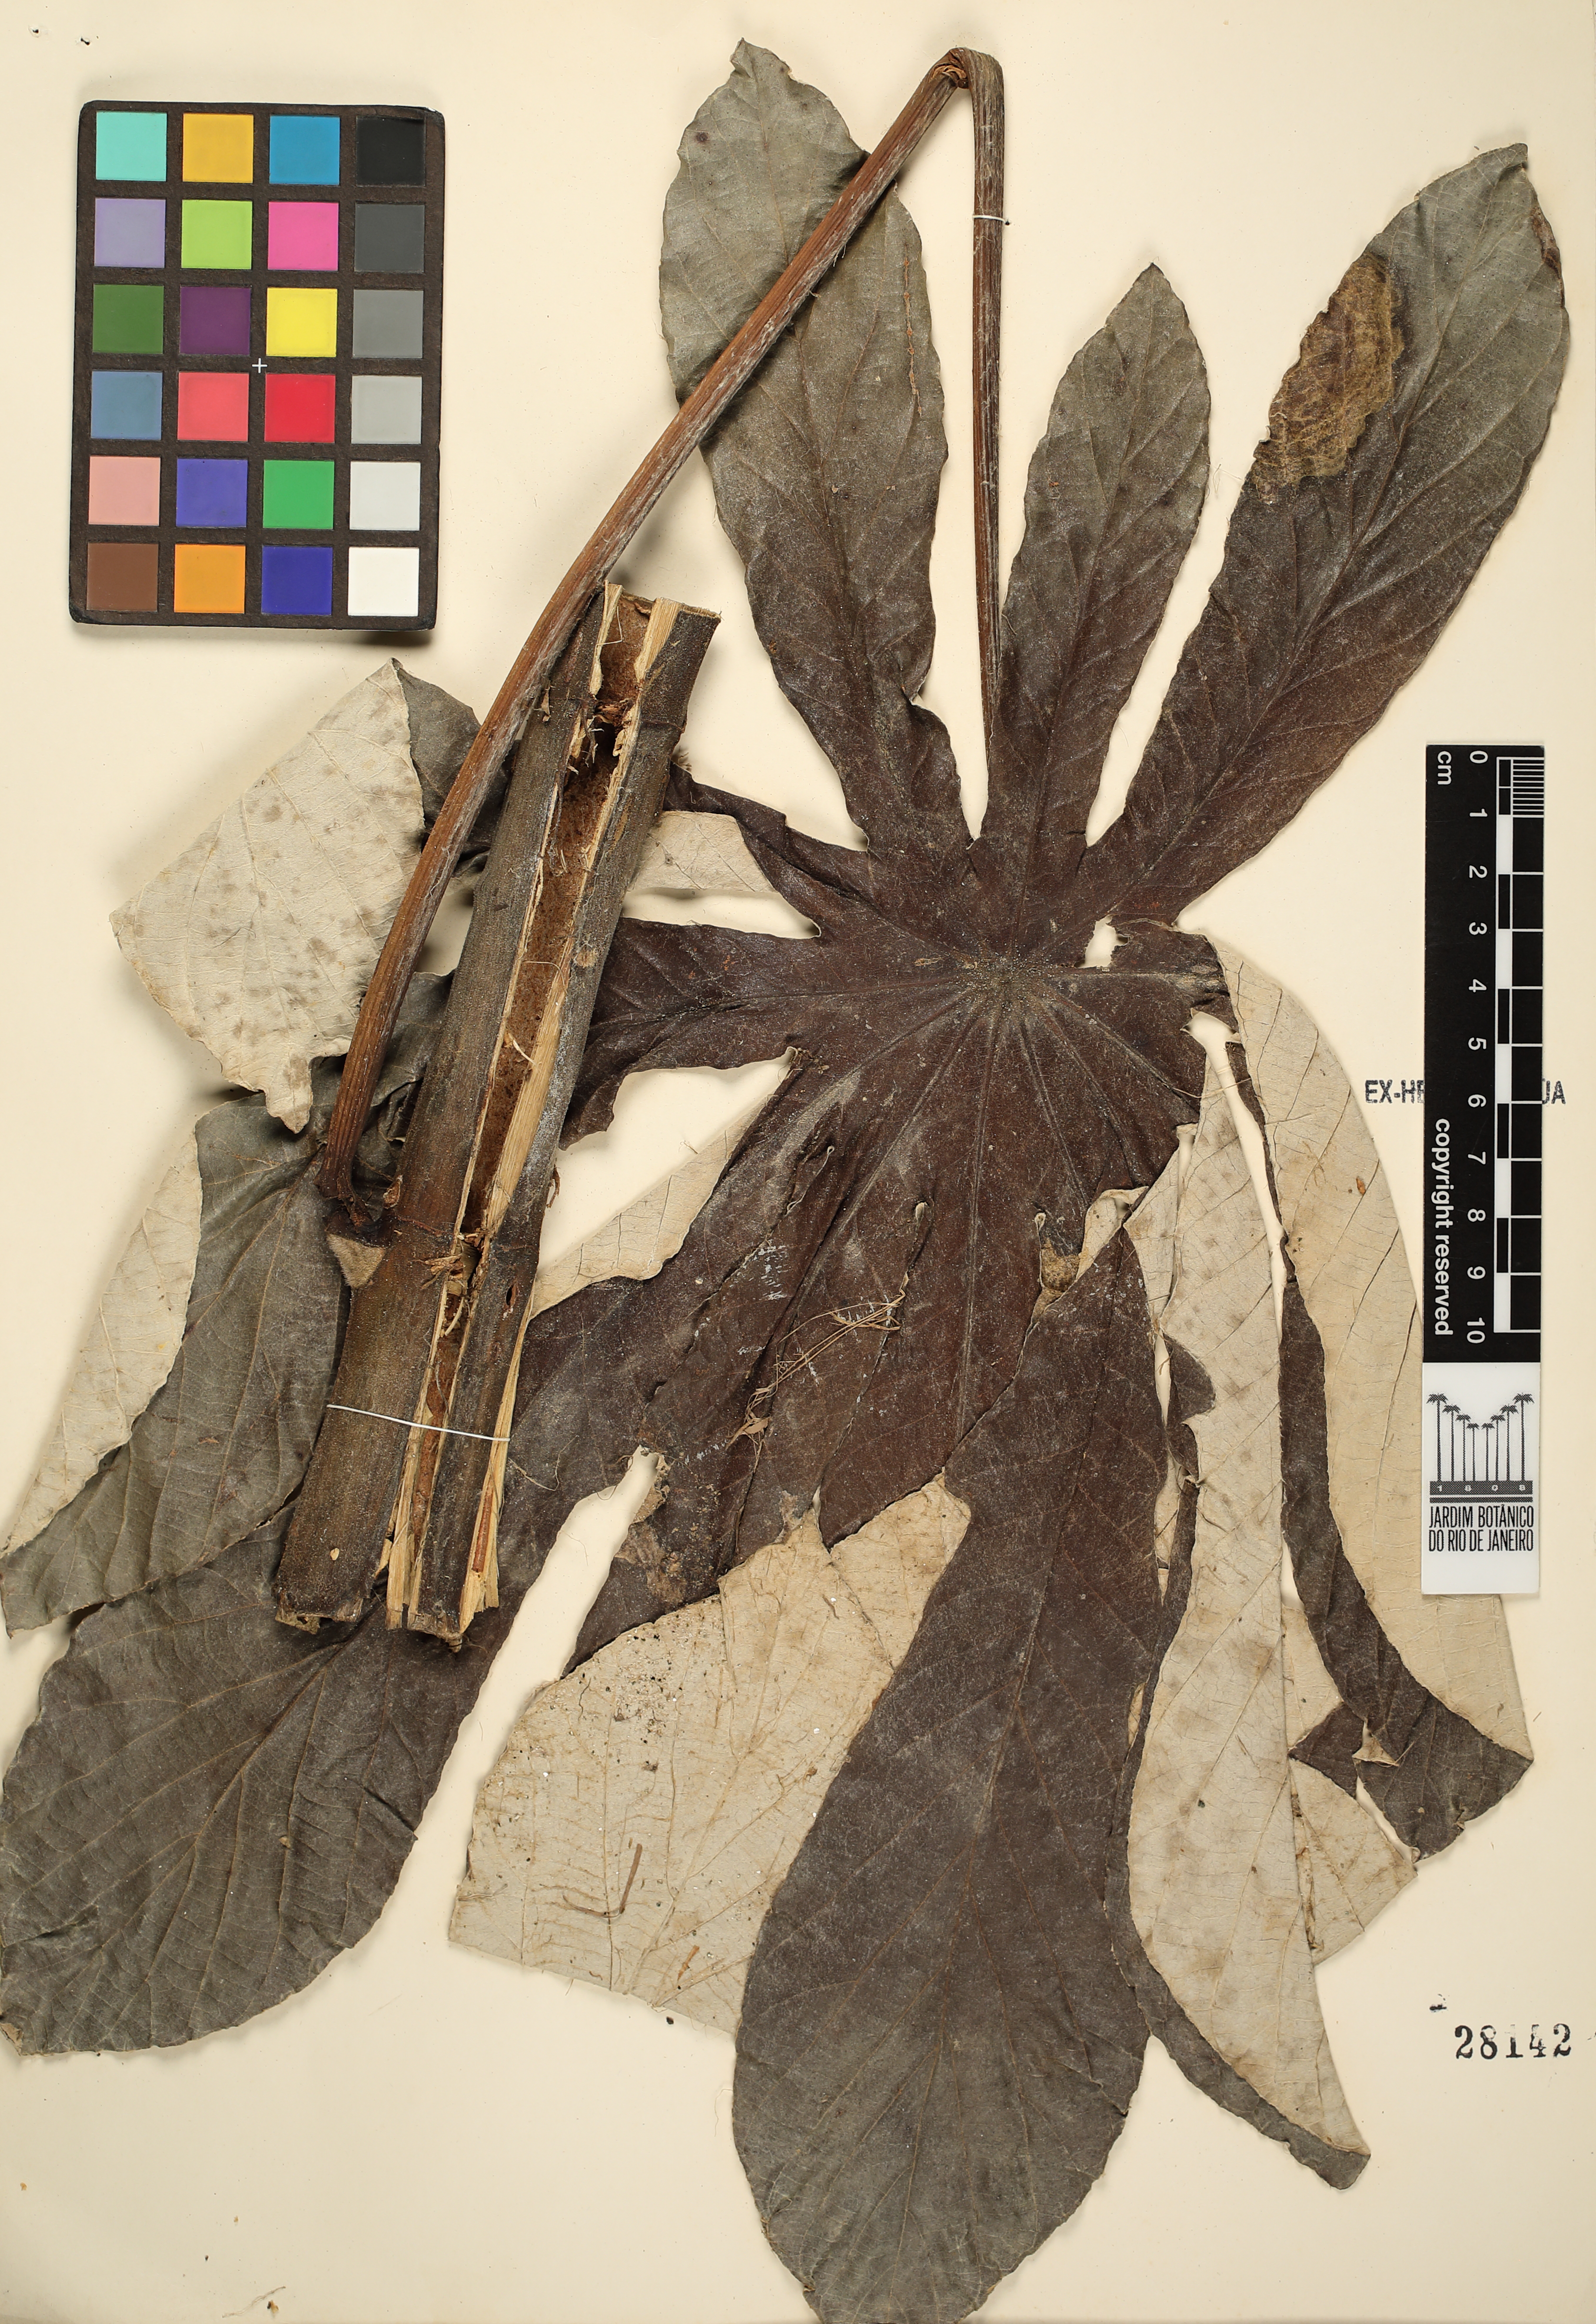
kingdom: Plantae
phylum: Tracheophyta
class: Magnoliopsida
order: Rosales
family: Urticaceae
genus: Cecropia
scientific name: Cecropia pachystachya
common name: Ambay pumpwood
